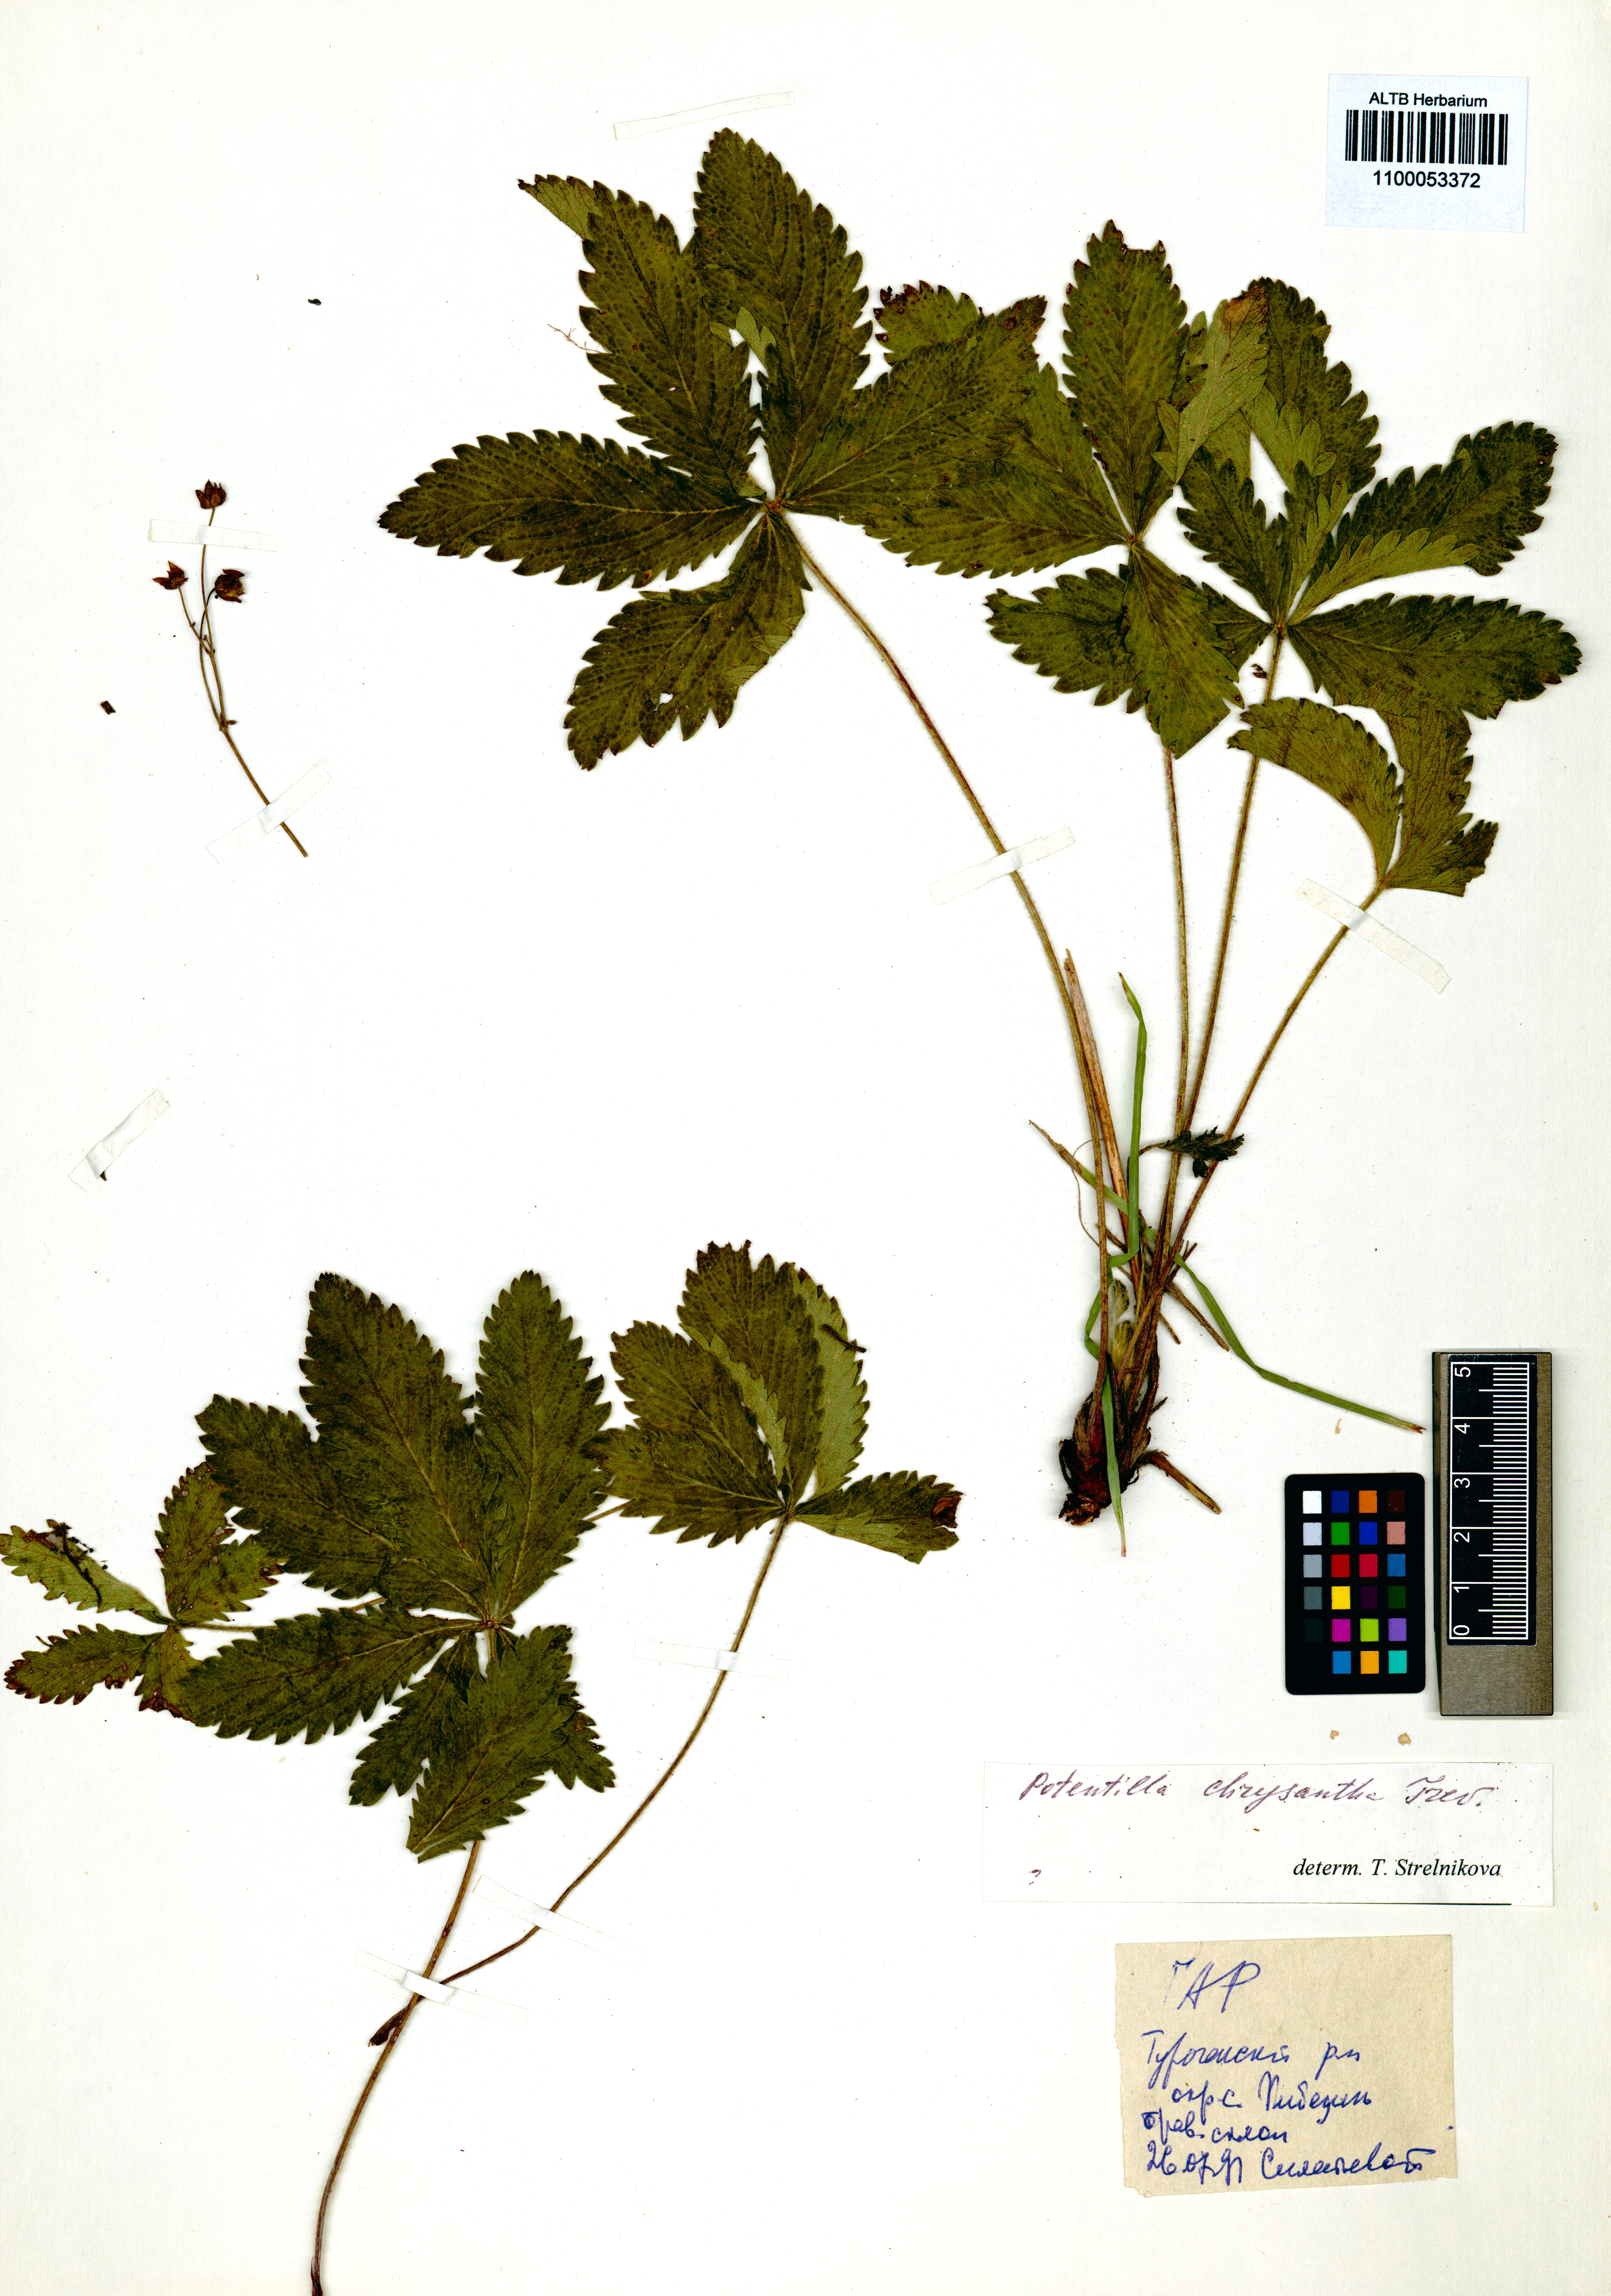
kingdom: Plantae
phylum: Tracheophyta
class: Magnoliopsida
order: Rosales
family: Rosaceae
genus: Potentilla
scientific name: Potentilla chrysantha
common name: Thuringian cinquefoil
